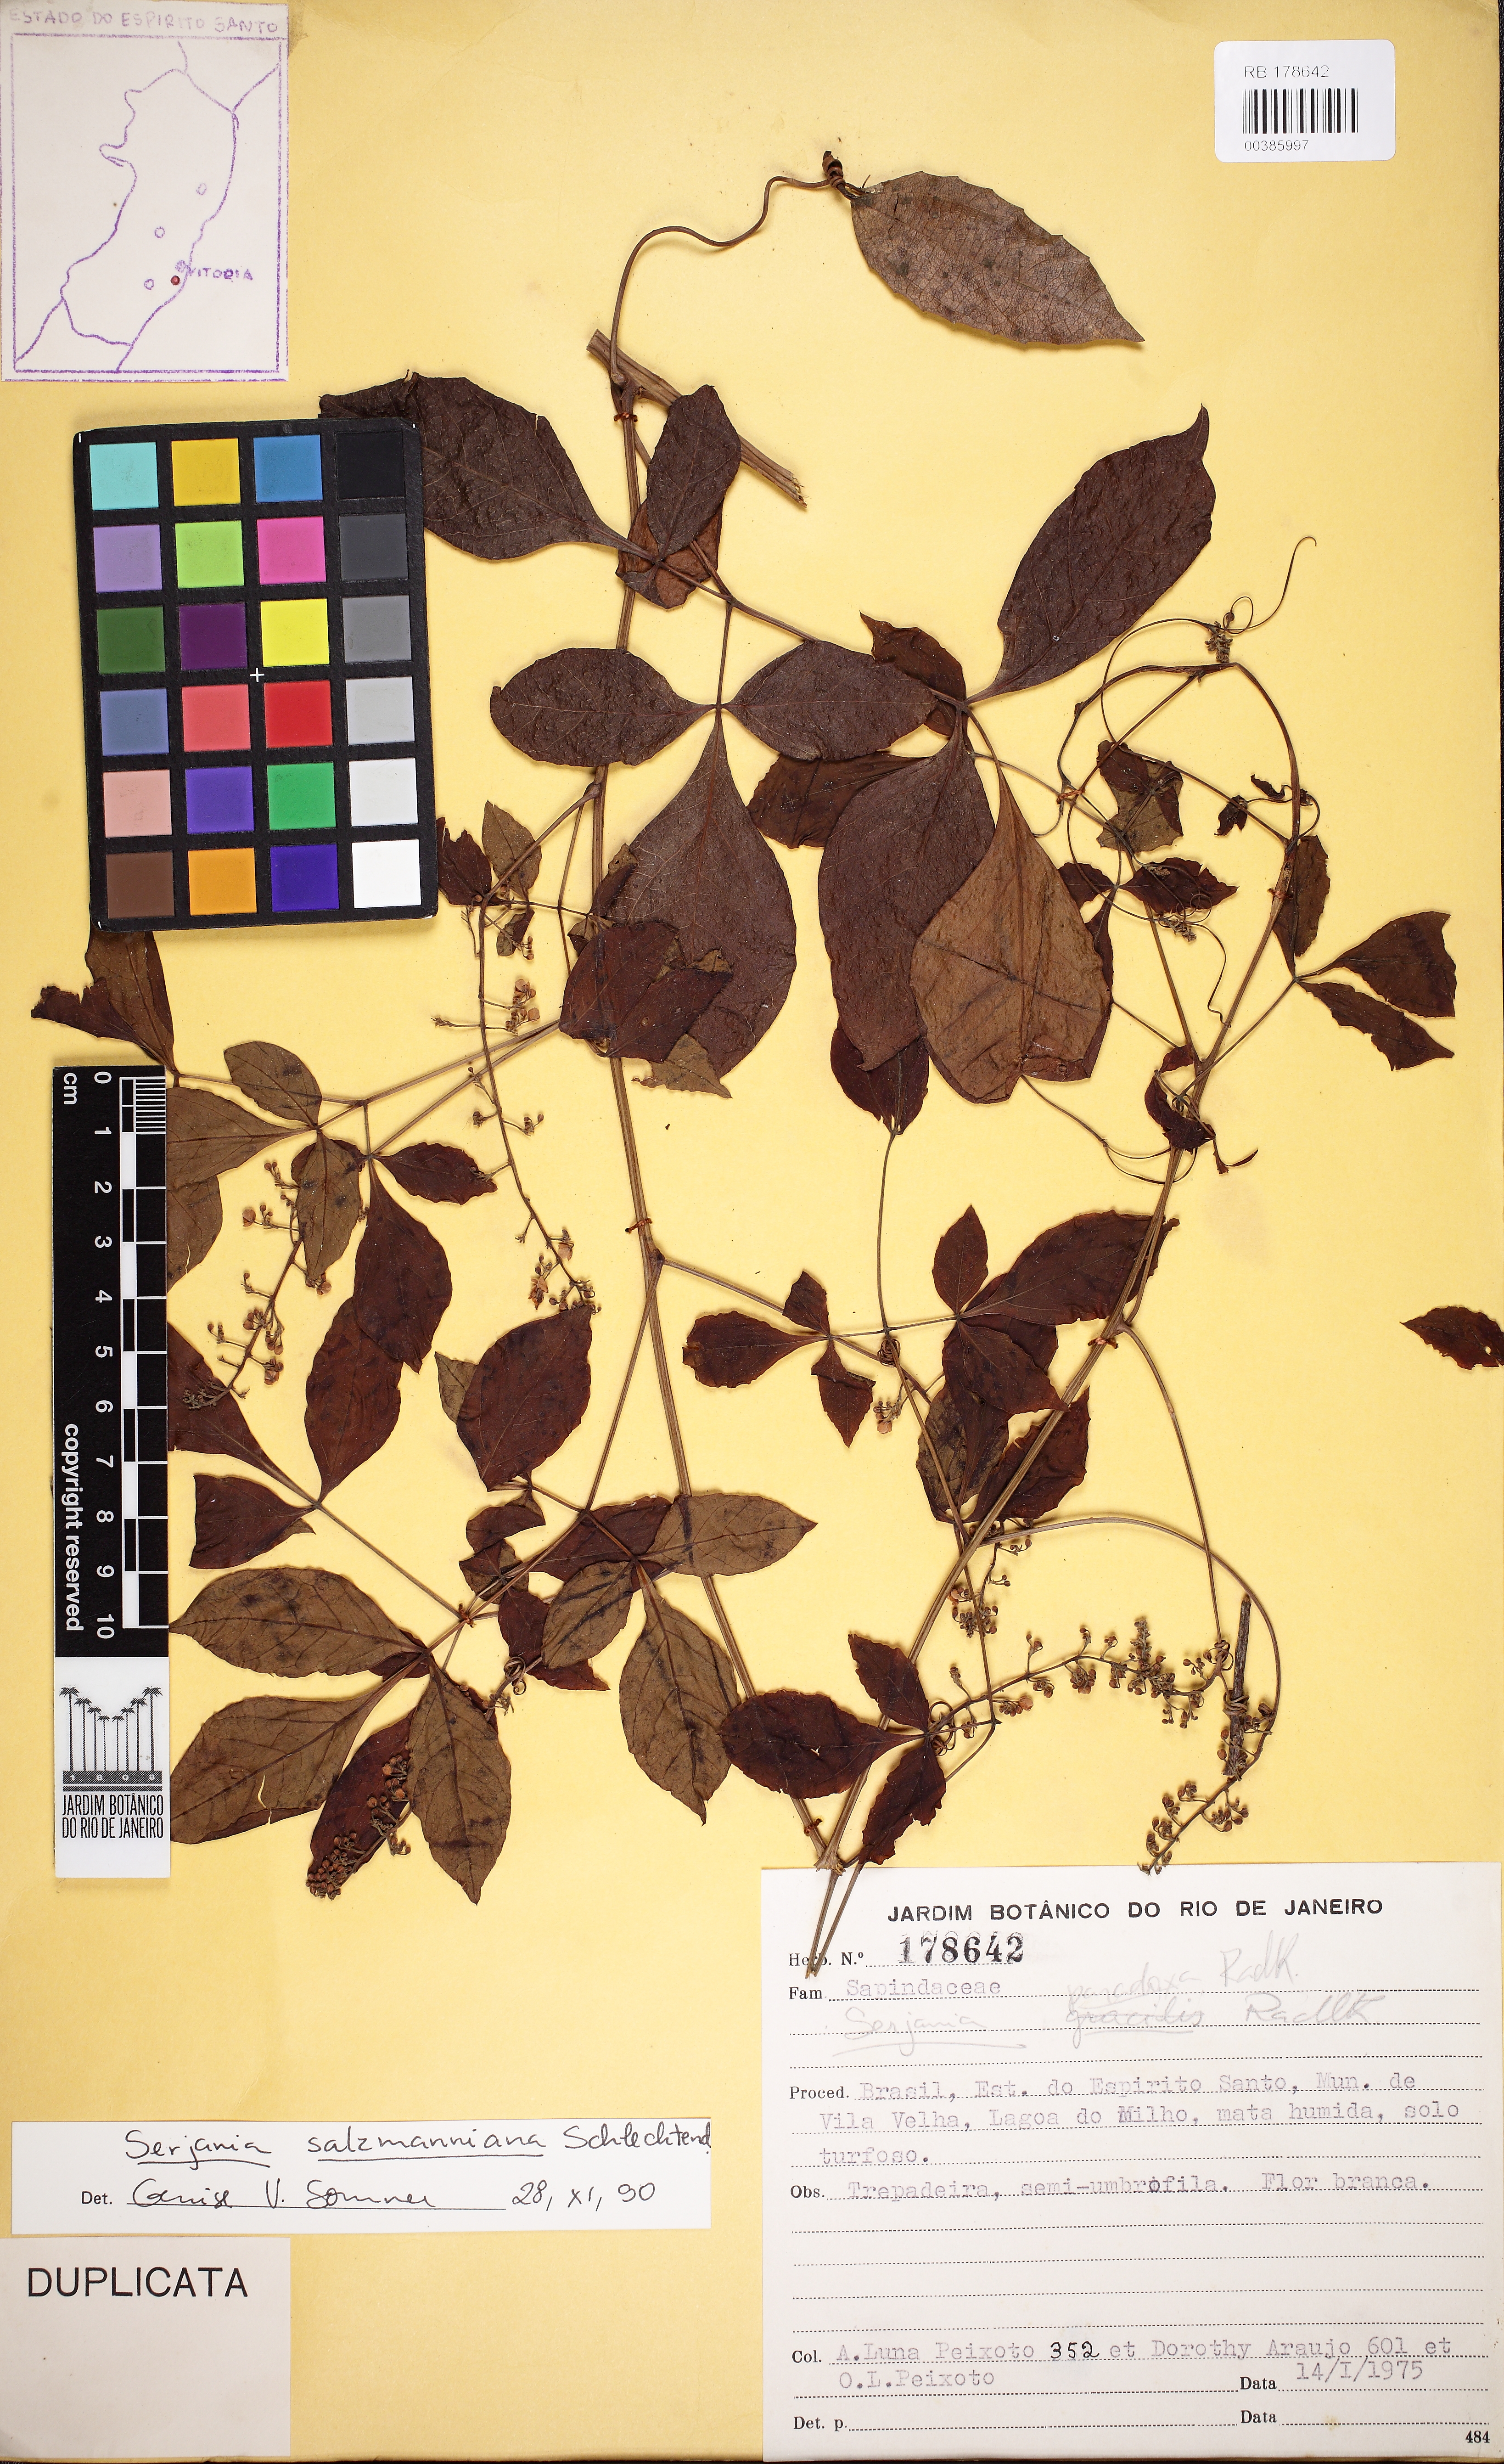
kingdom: Plantae
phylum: Tracheophyta
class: Magnoliopsida
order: Sapindales
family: Sapindaceae
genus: Serjania
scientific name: Serjania salzmanniana
